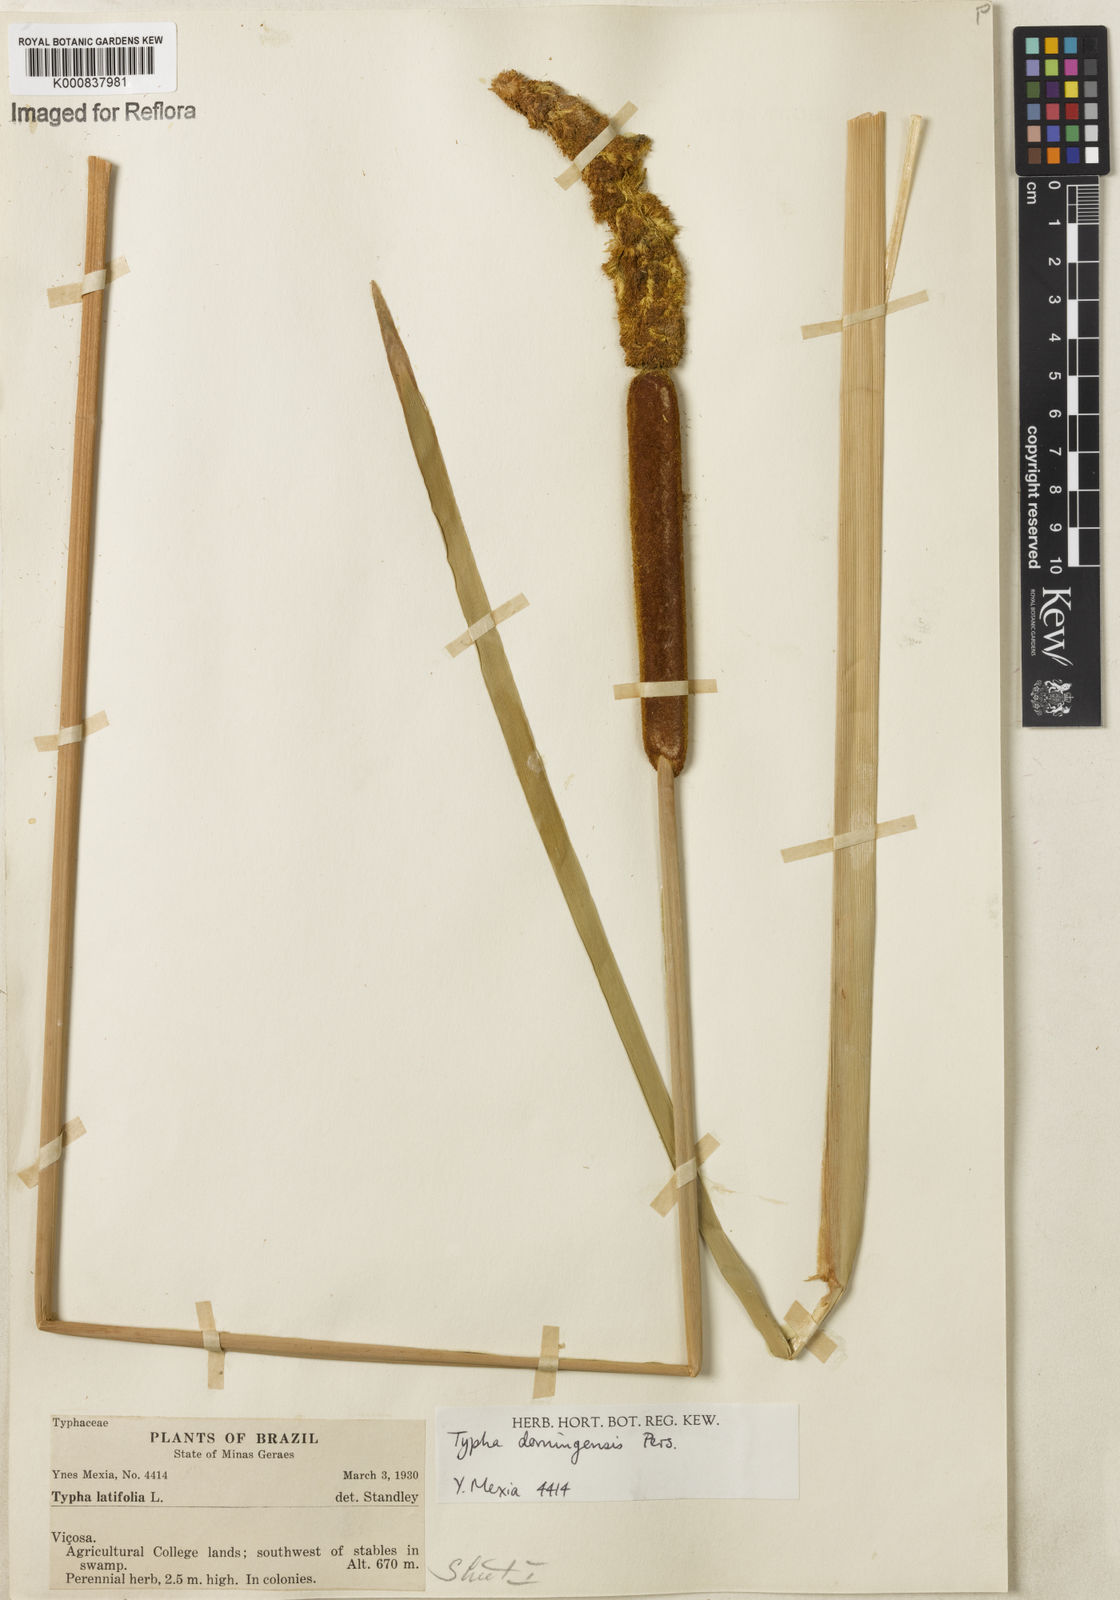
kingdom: Plantae
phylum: Tracheophyta
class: Liliopsida
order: Poales
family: Typhaceae
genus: Typha
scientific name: Typha
